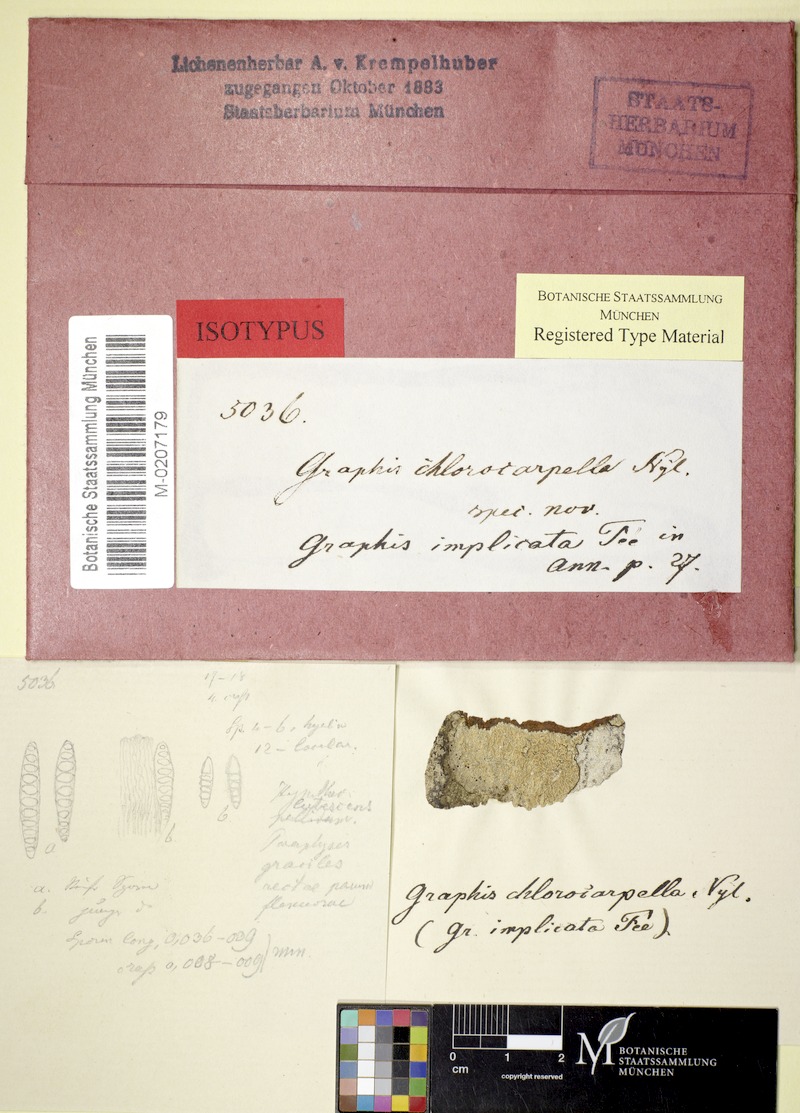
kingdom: Fungi
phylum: Ascomycota
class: Lecanoromycetes
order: Ostropales
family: Graphidaceae
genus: Graphis
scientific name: Graphis implicata
